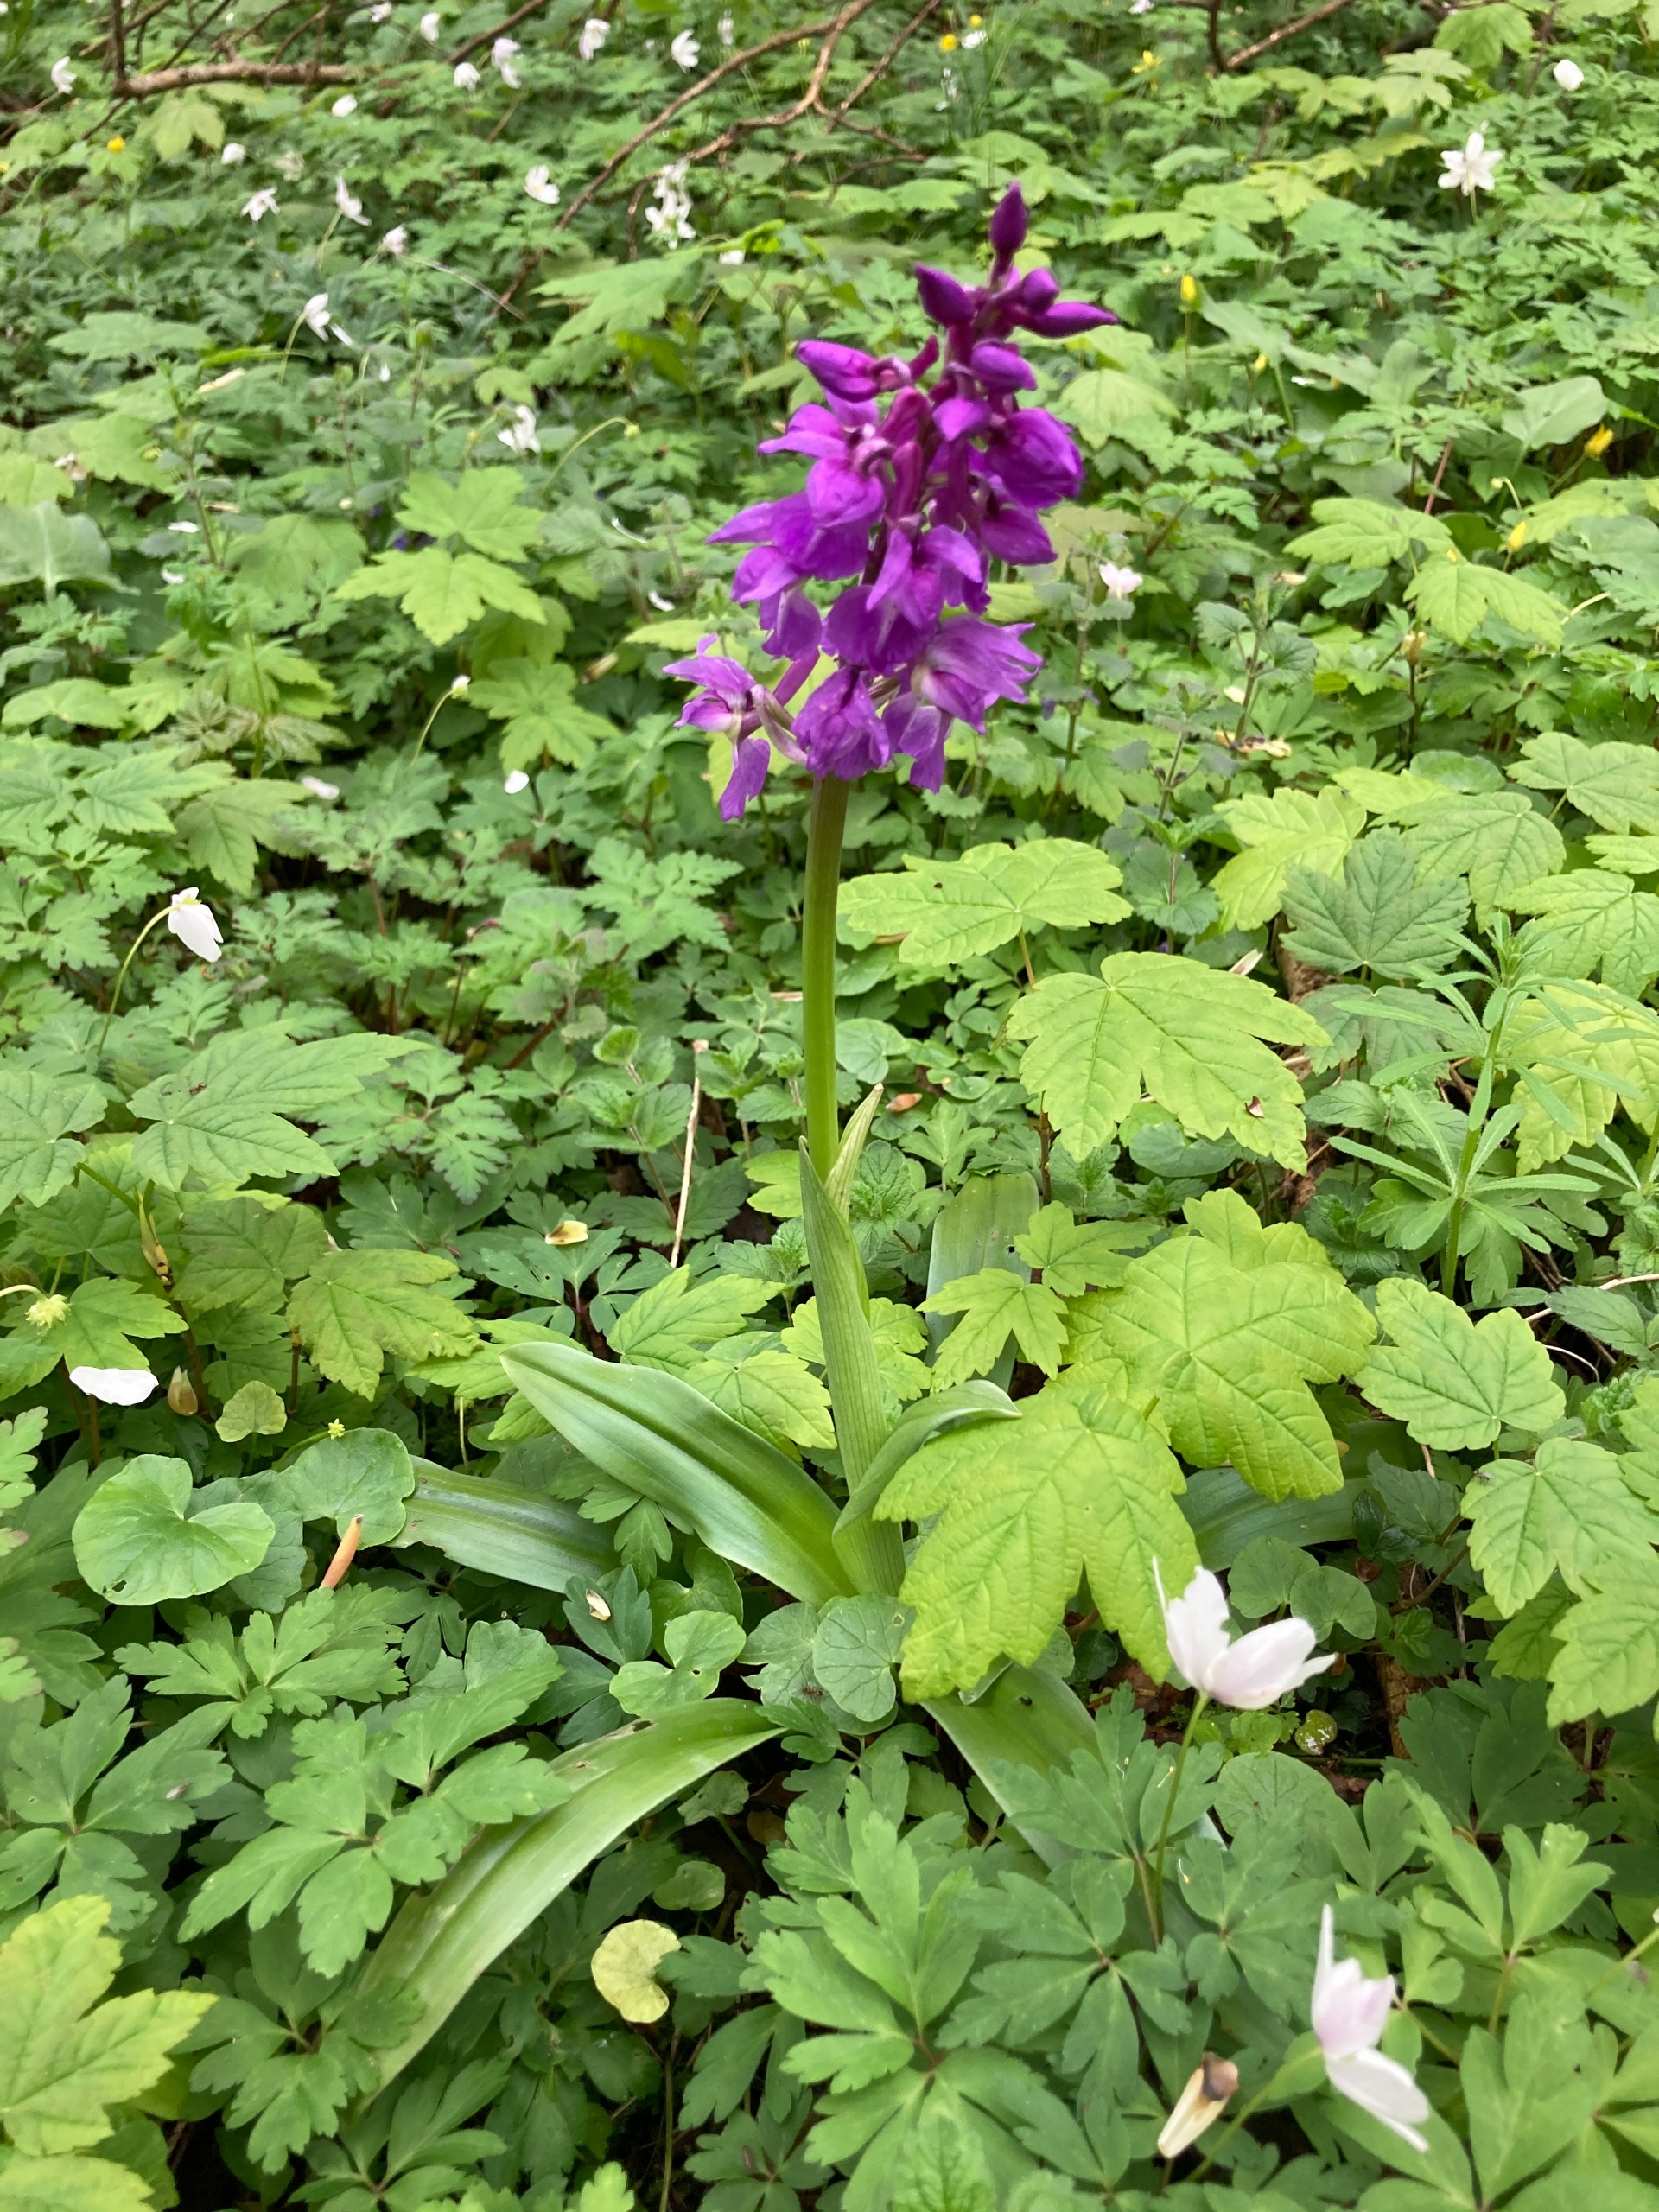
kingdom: Plantae
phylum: Tracheophyta
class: Liliopsida
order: Asparagales
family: Orchidaceae
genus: Orchis
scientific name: Orchis mascula
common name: Tyndakset gøgeurt
